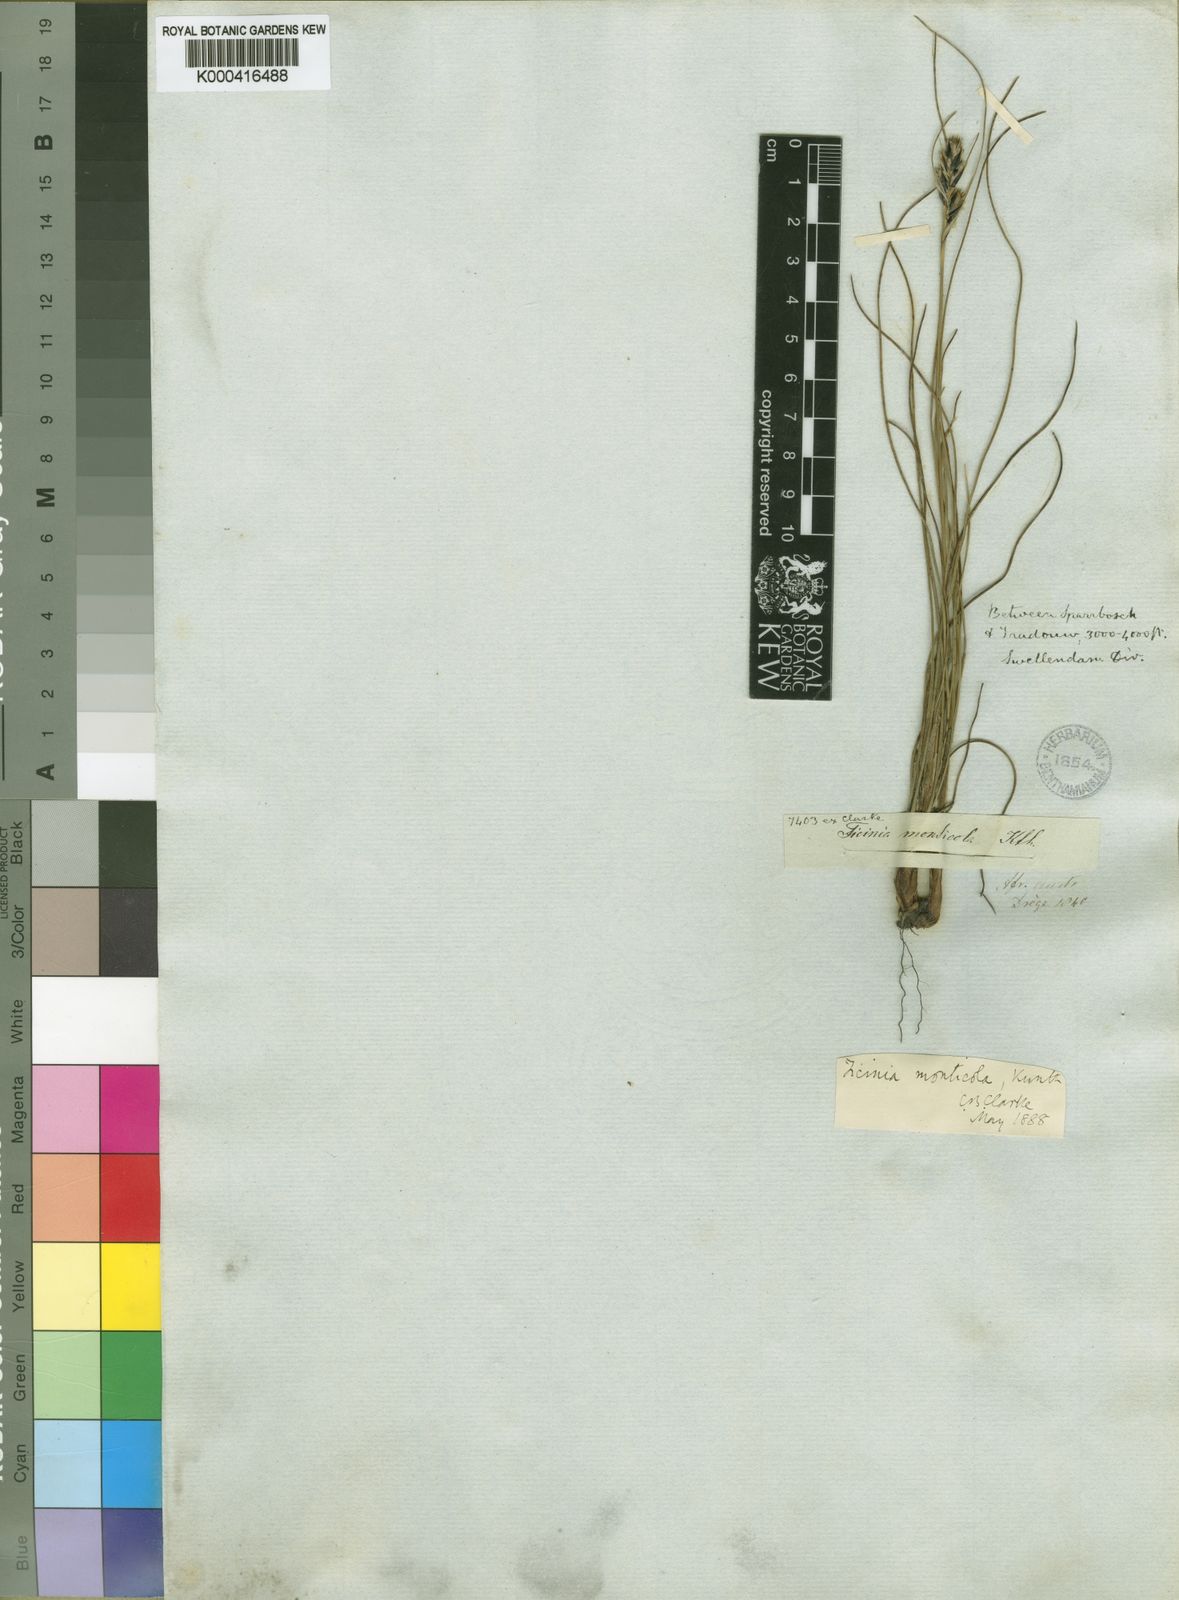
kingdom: Plantae
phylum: Tracheophyta
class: Liliopsida
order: Poales
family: Cyperaceae
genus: Ficinia
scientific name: Ficinia monticola
